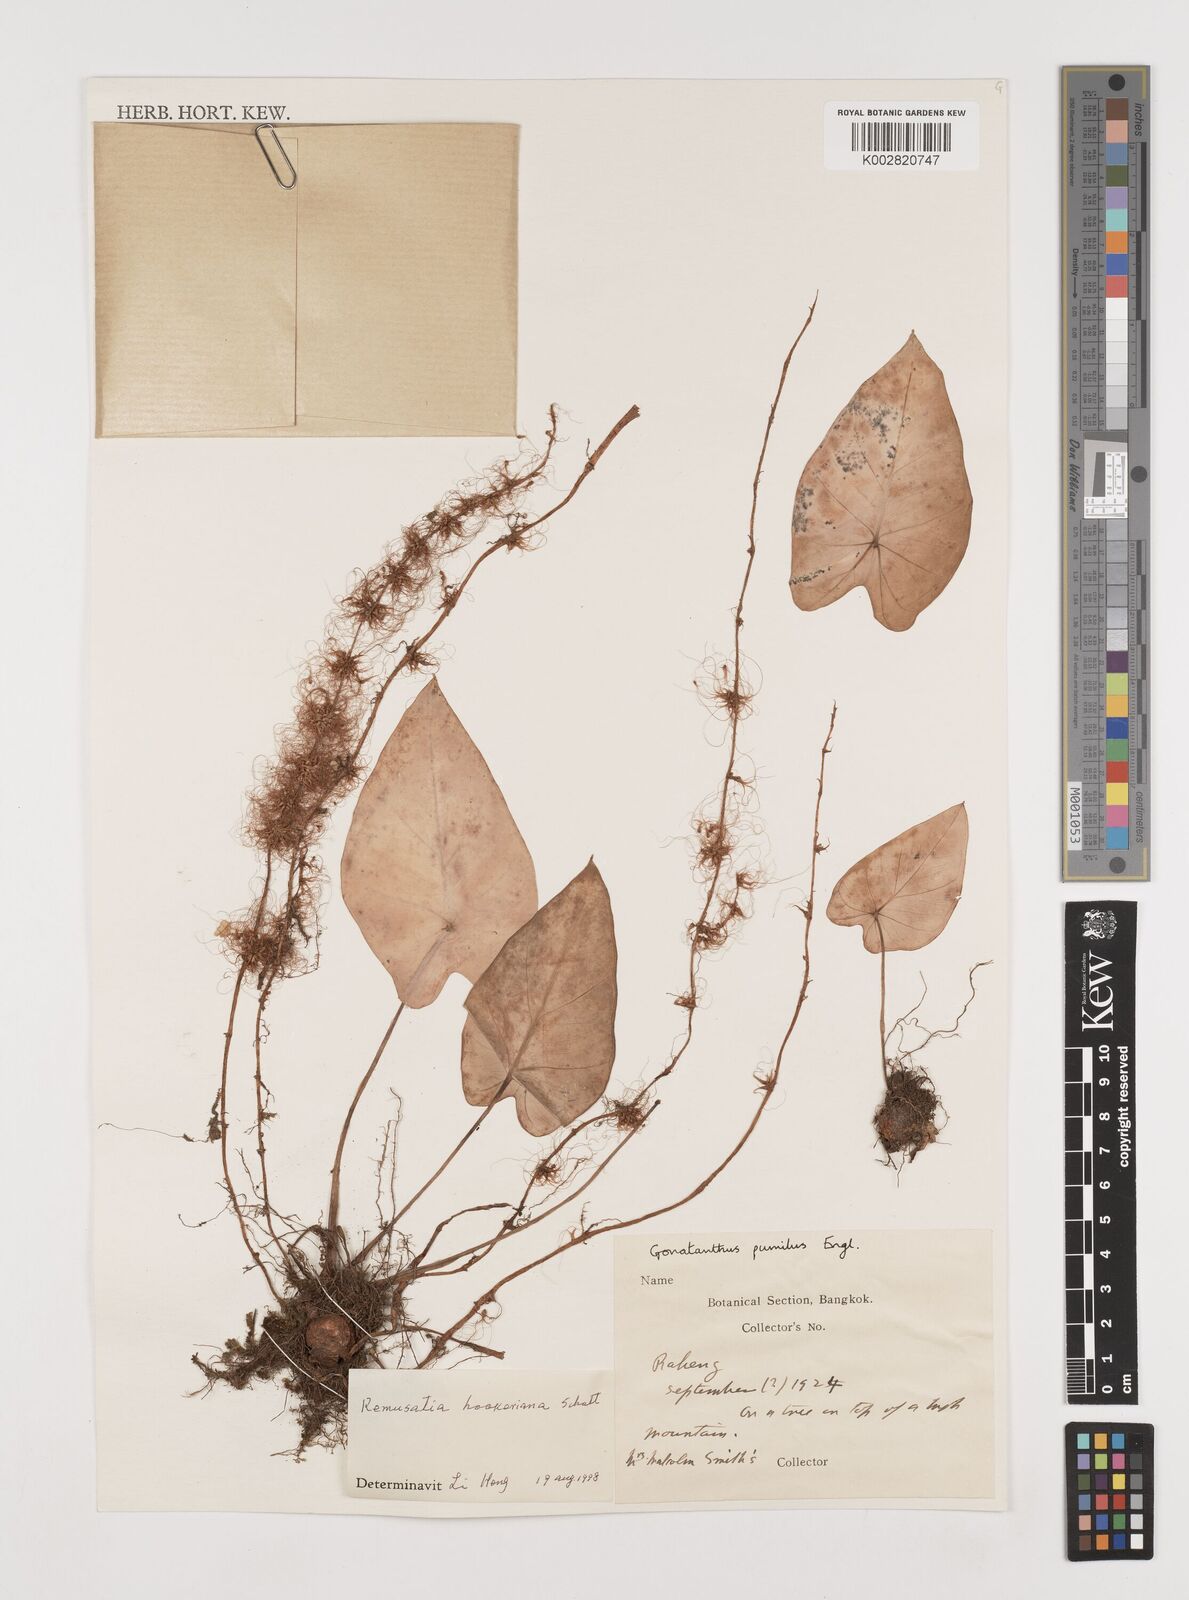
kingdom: Plantae
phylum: Tracheophyta
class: Liliopsida
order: Alismatales
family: Araceae
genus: Remusatia
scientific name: Remusatia hookeriana
